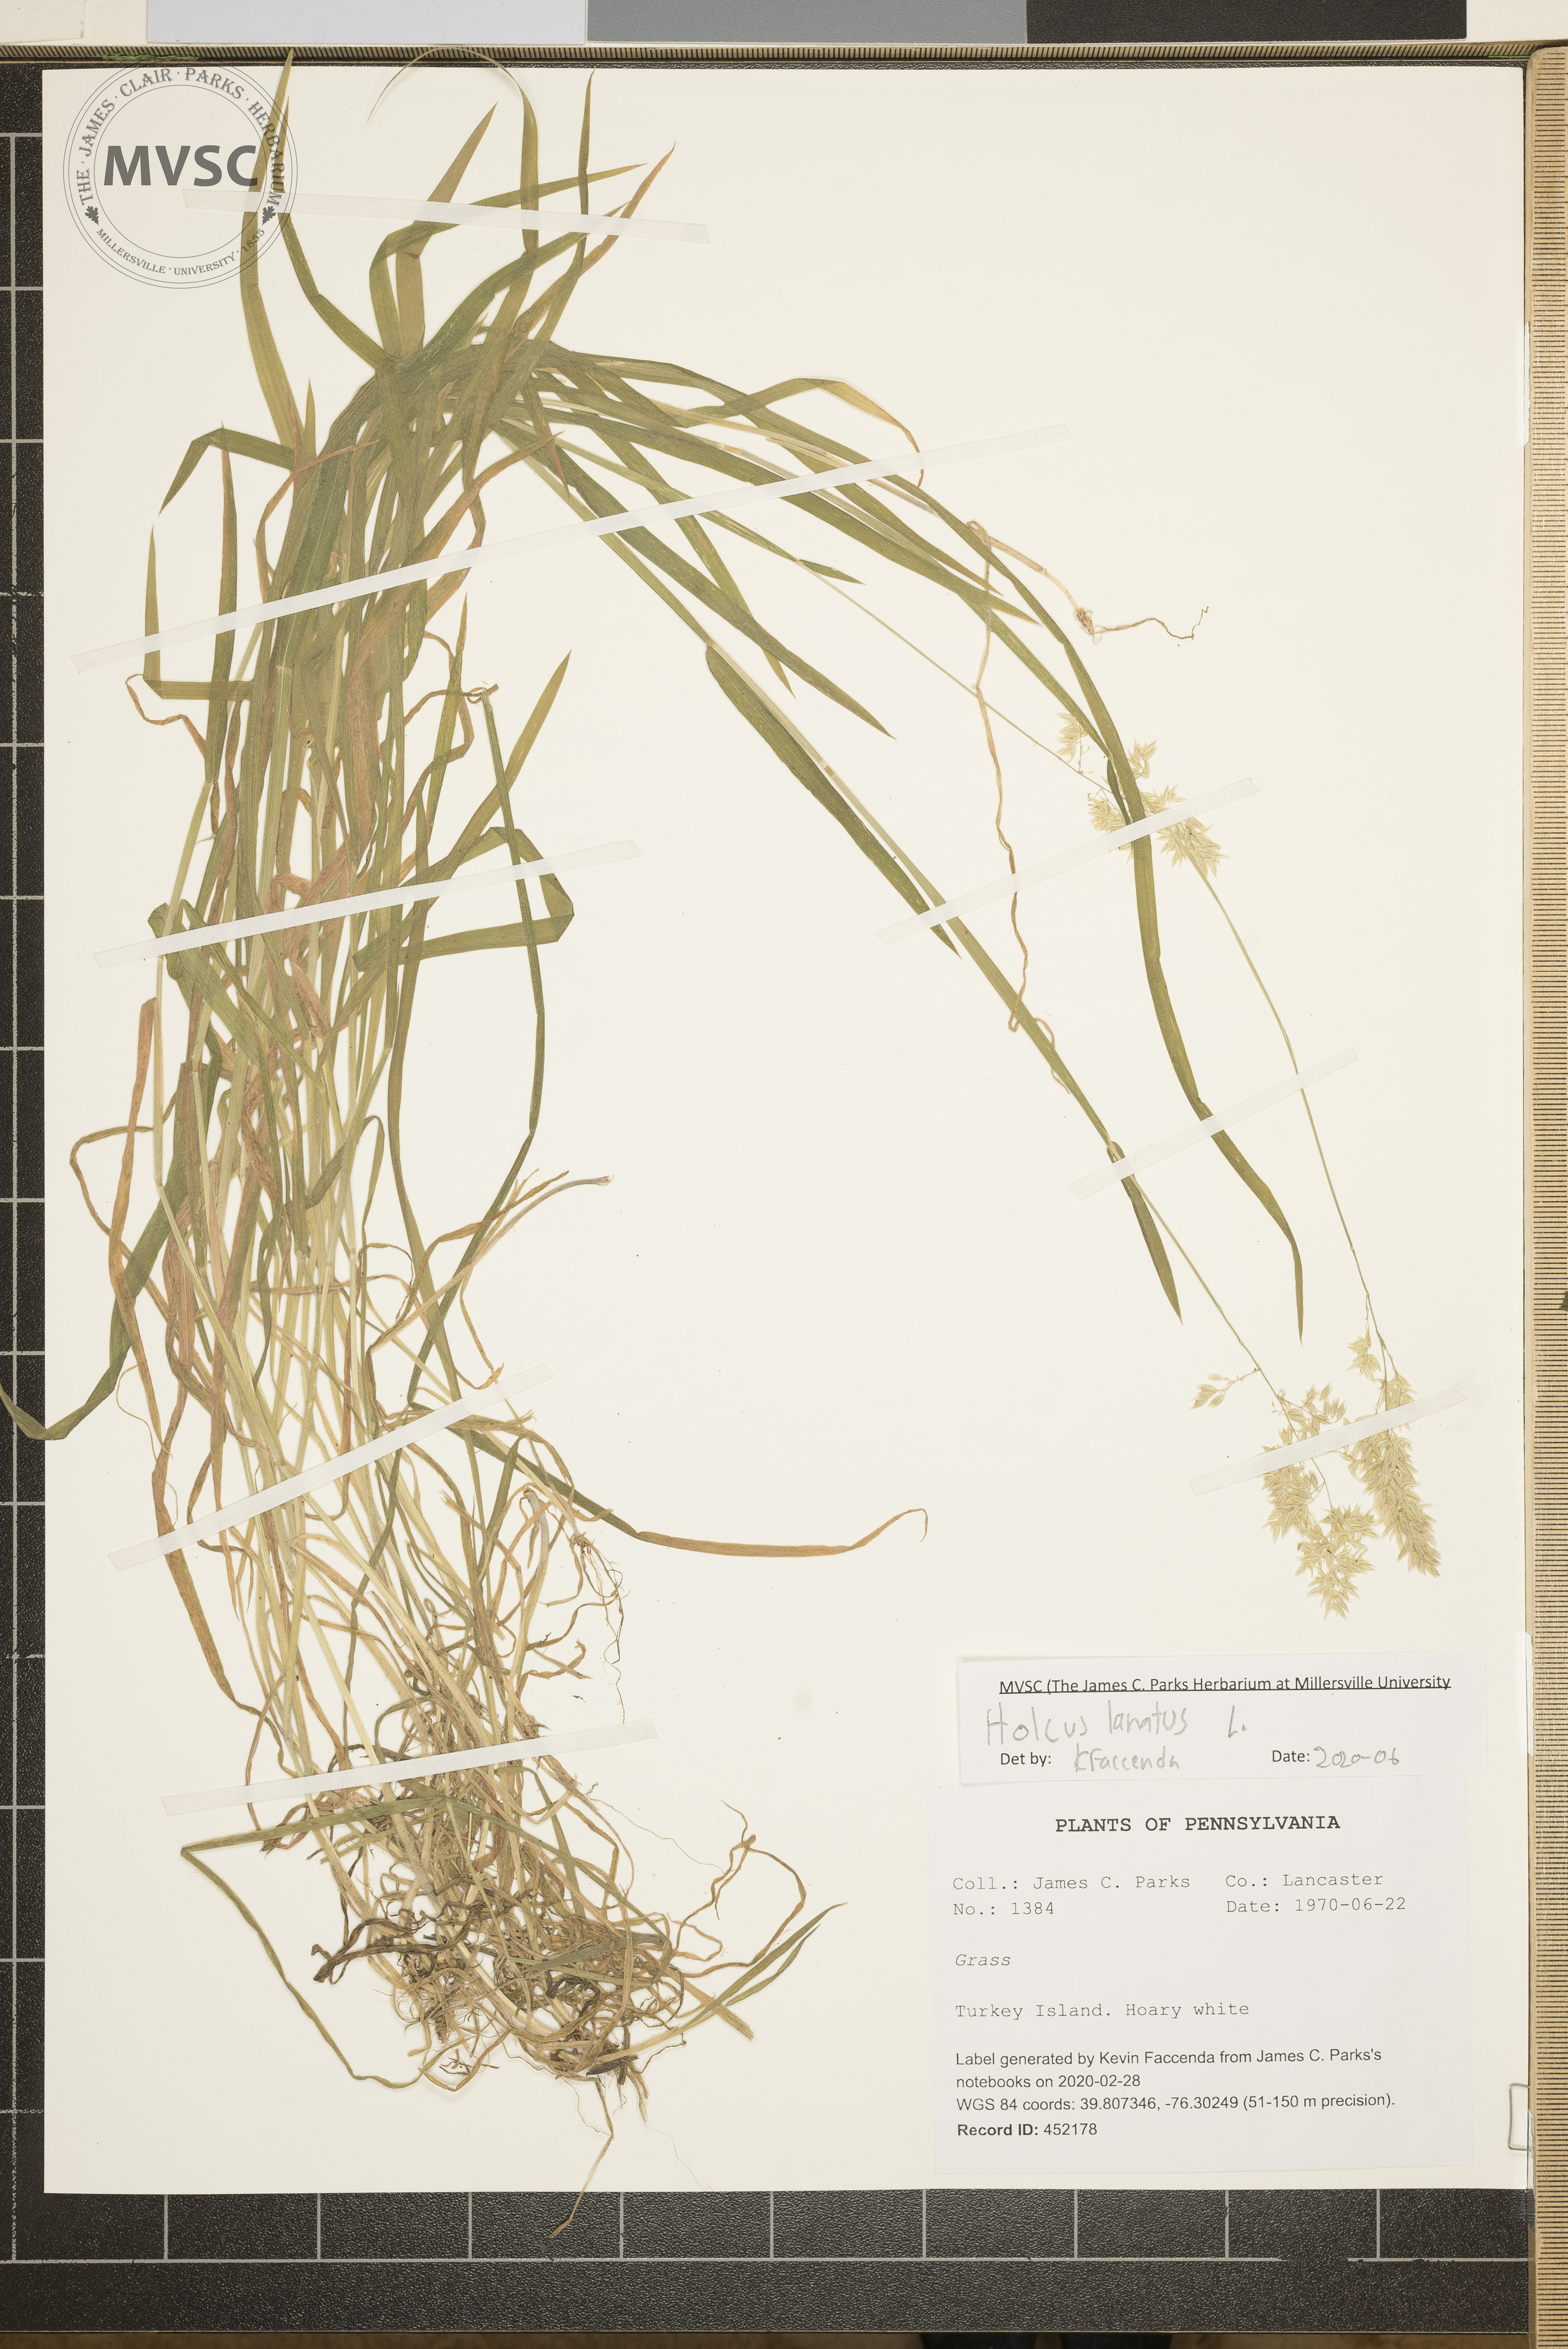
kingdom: Plantae
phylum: Tracheophyta
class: Liliopsida
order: Poales
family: Poaceae
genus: Holcus
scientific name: Holcus lanatus
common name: Yorkshire-fog
